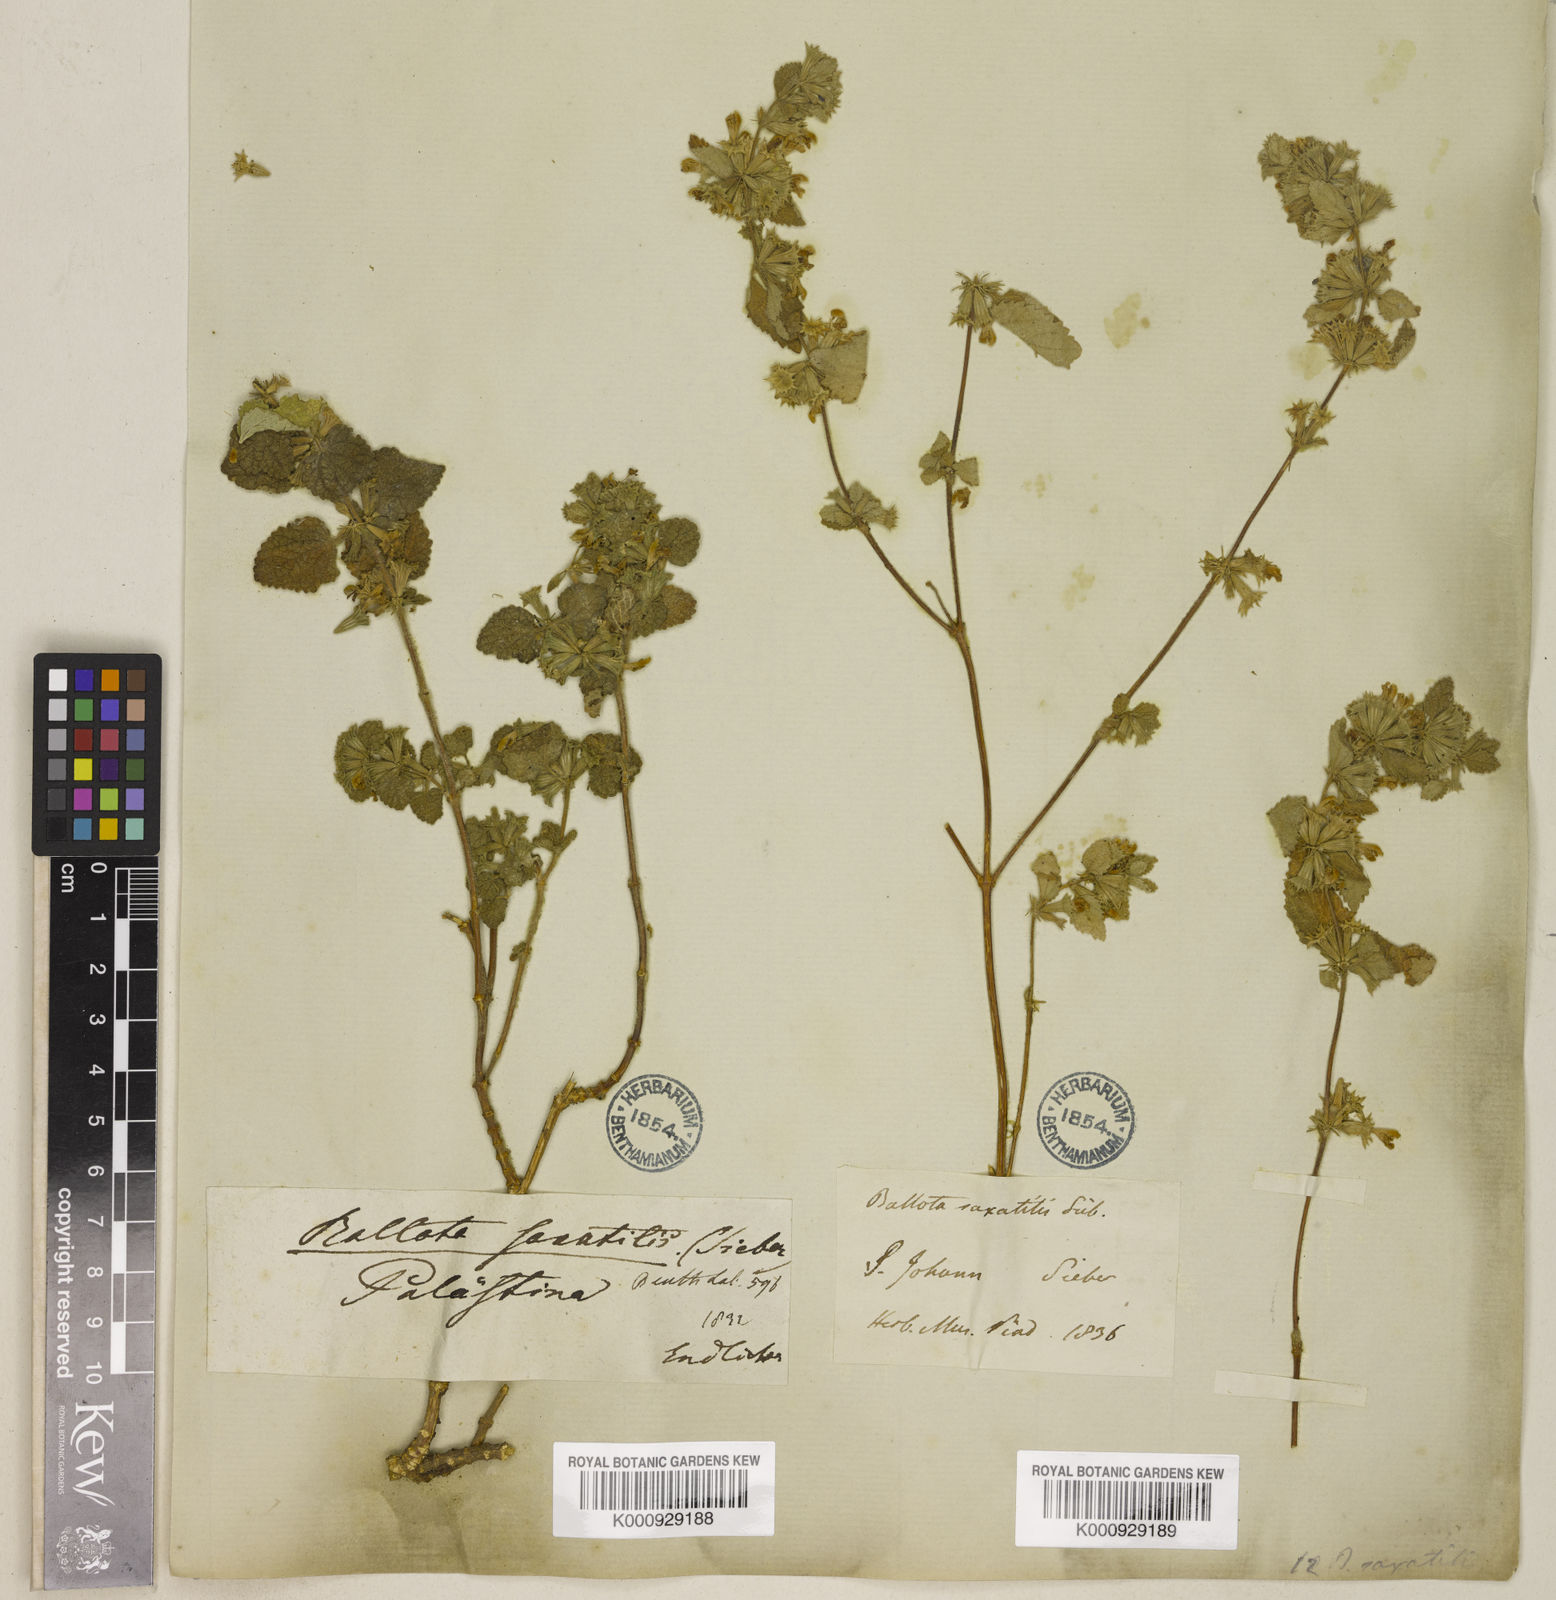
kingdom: Plantae
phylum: Tracheophyta
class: Magnoliopsida
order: Lamiales
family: Lamiaceae
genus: Ballota
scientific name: Ballota saxatilis
